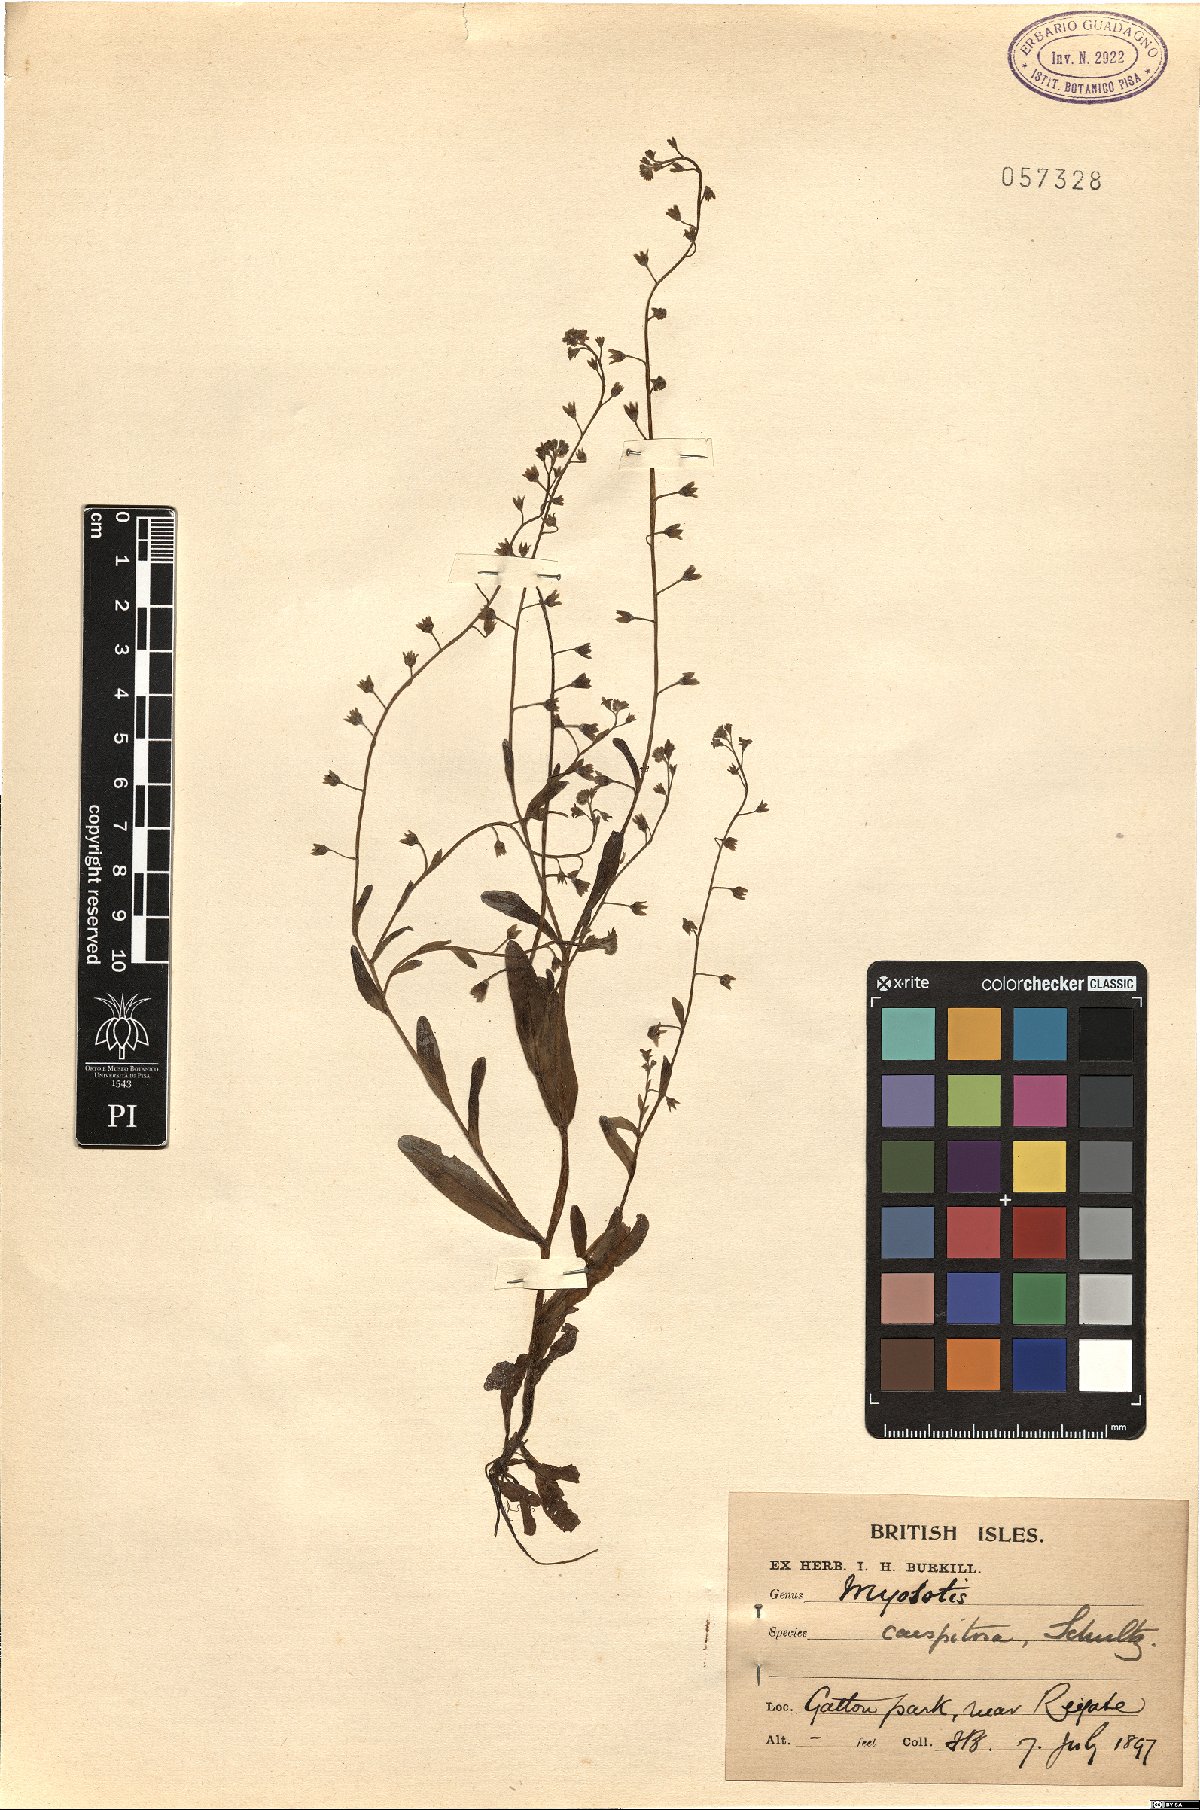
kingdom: Plantae
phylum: Tracheophyta
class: Magnoliopsida
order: Boraginales
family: Boraginaceae
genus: Myosotis
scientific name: Myosotis laxa
